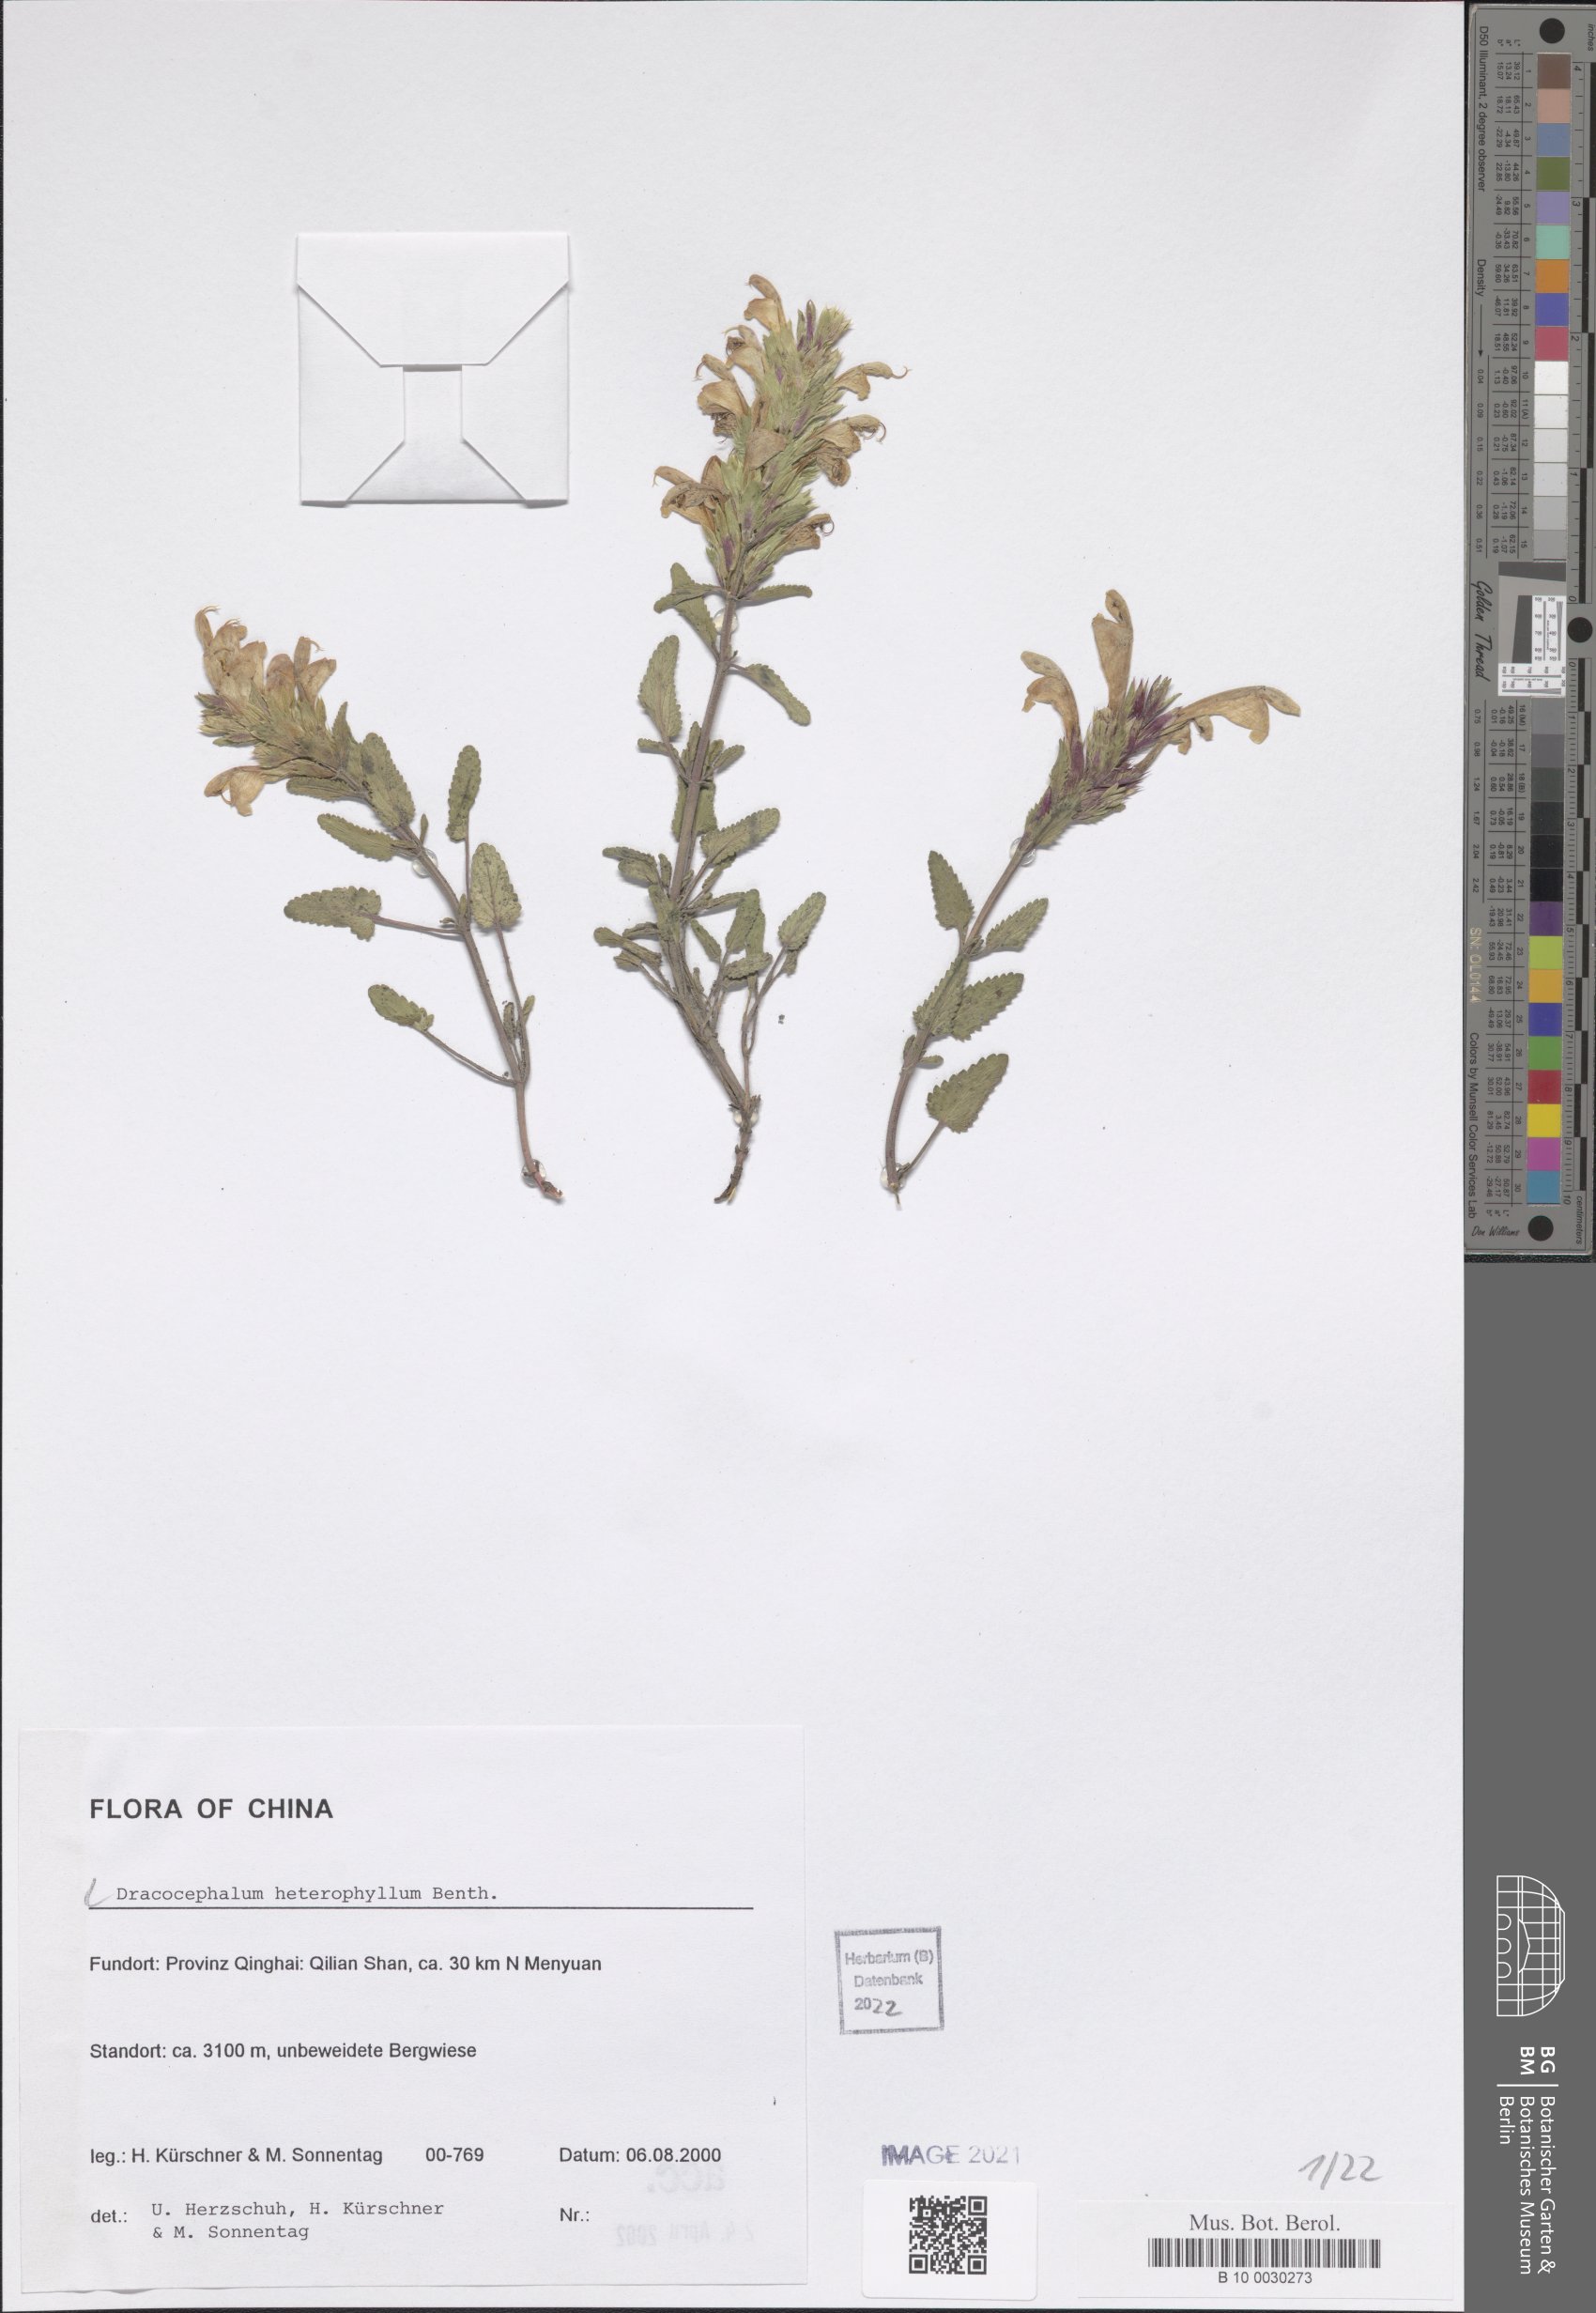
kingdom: Plantae
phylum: Tracheophyta
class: Magnoliopsida
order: Lamiales
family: Lamiaceae
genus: Dracocephalum
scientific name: Dracocephalum heterophyllum
